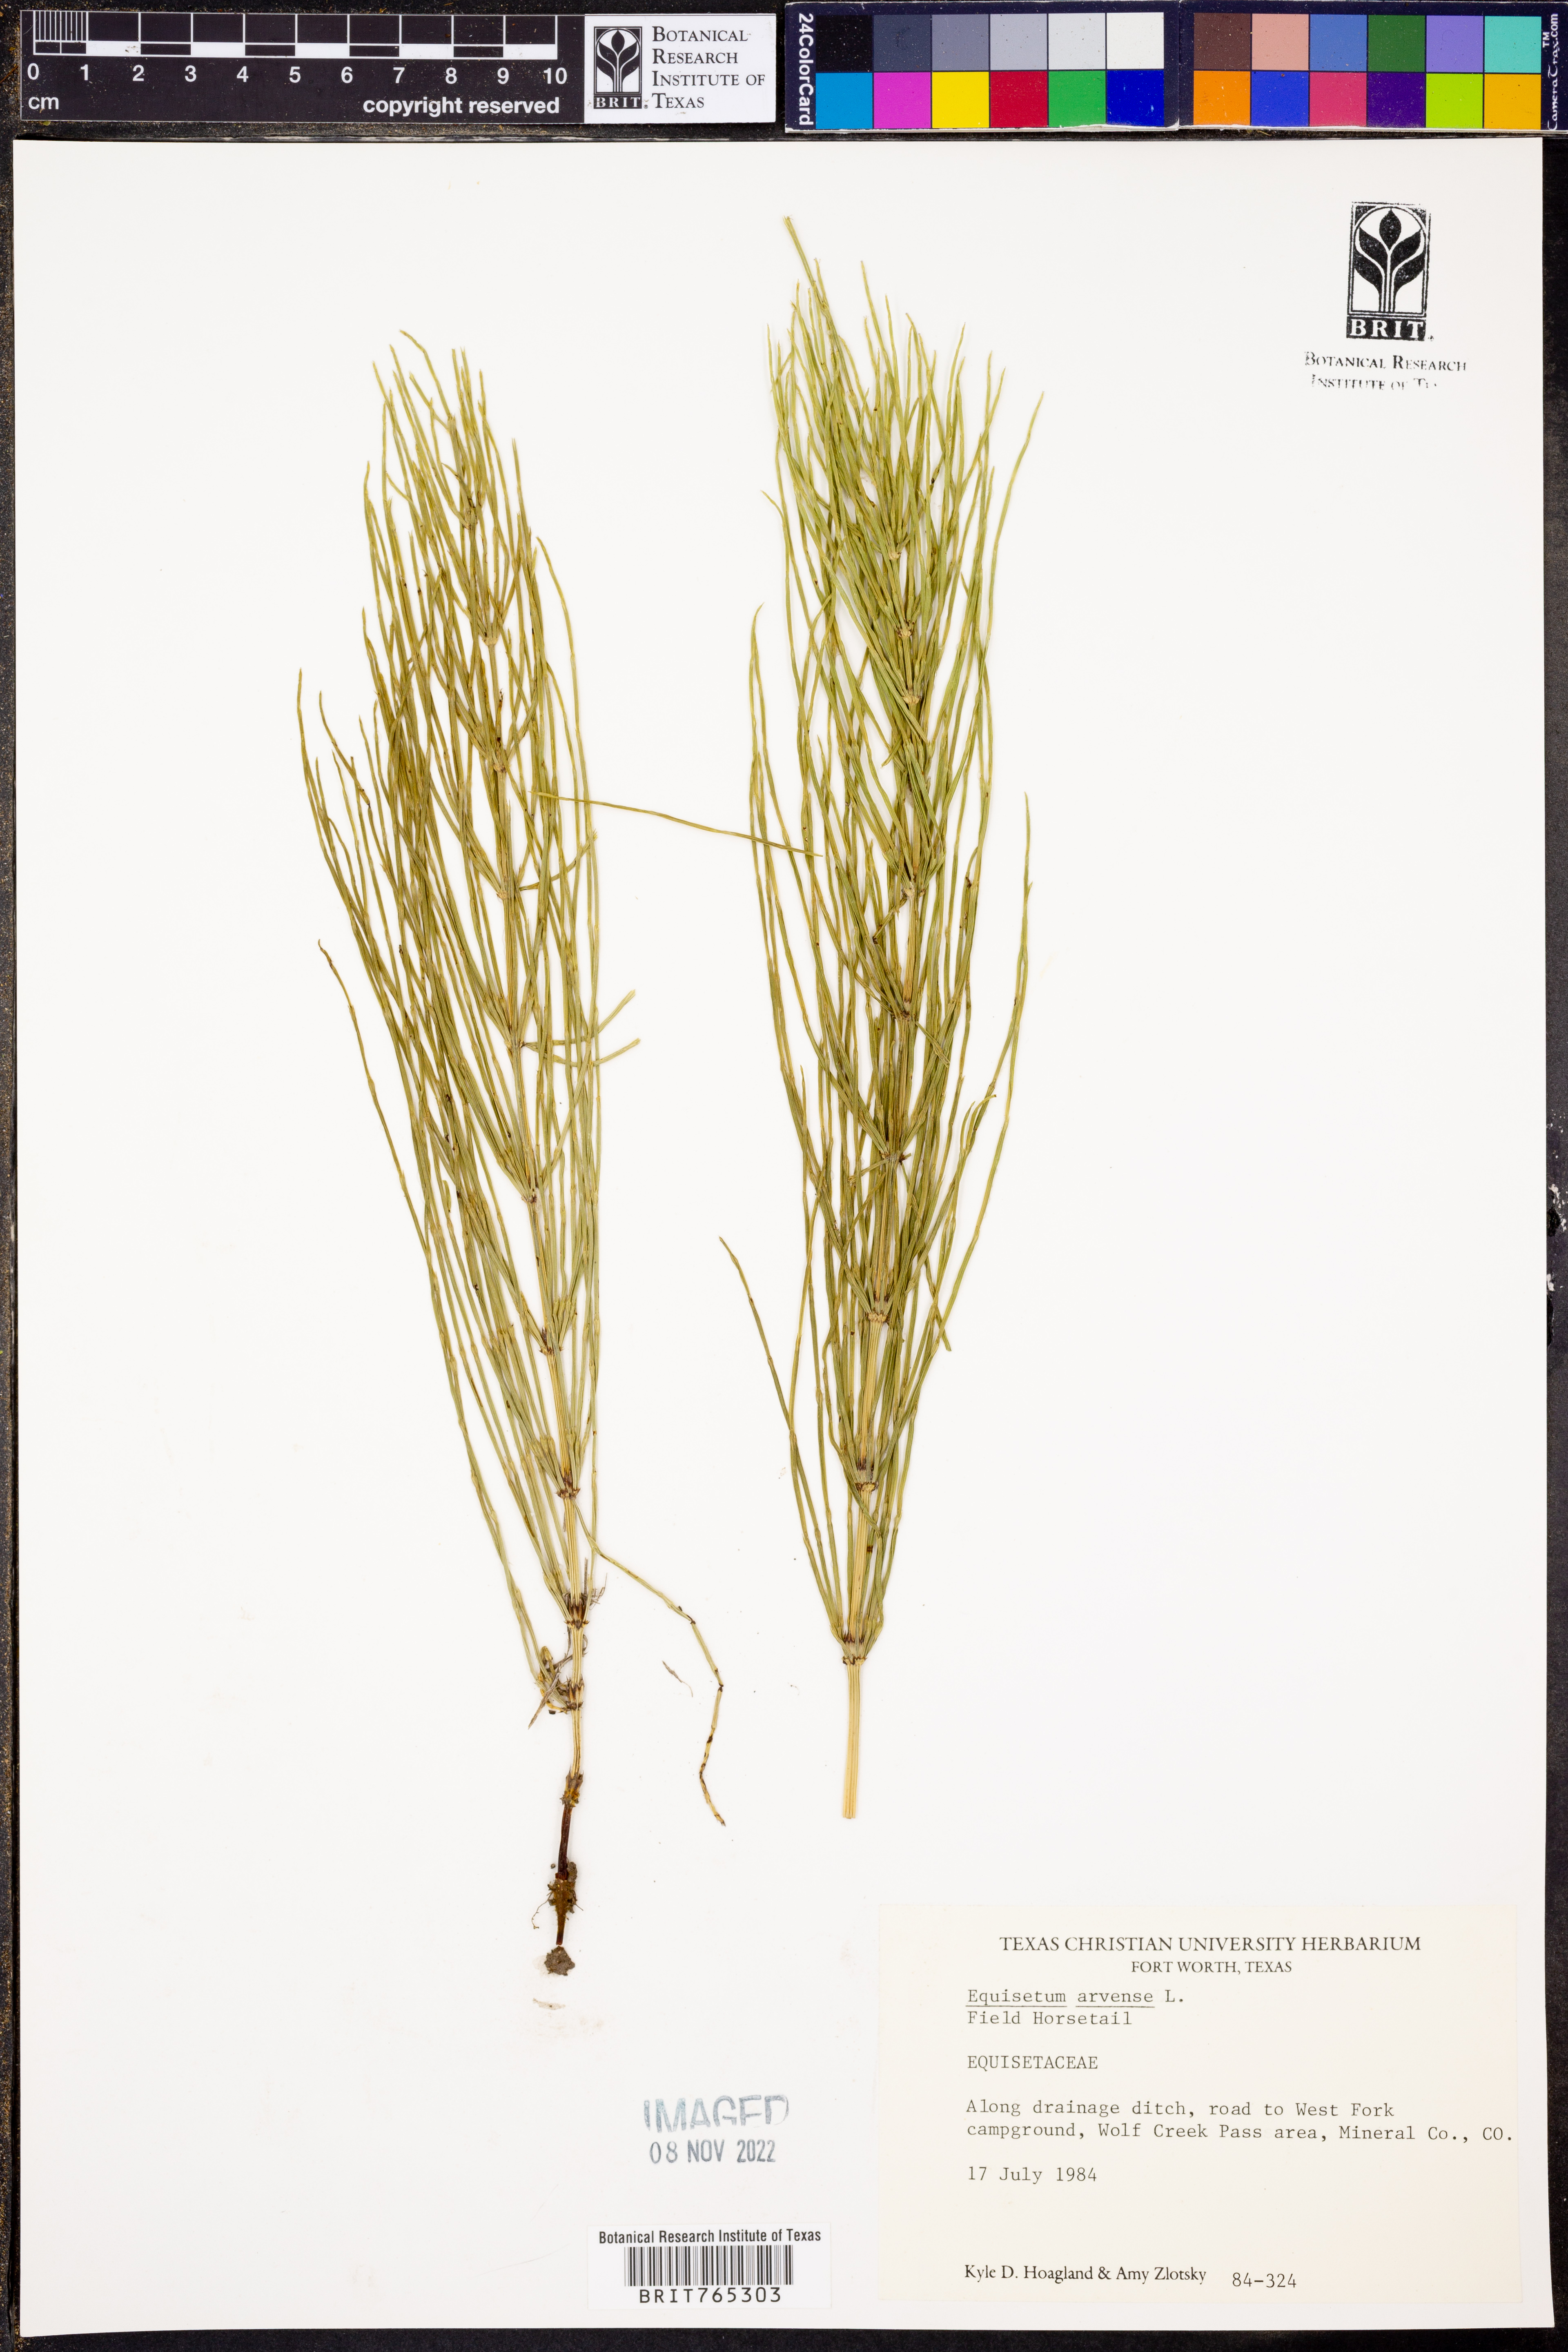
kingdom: Plantae
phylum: Tracheophyta
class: Polypodiopsida
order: Equisetales
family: Equisetaceae
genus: Equisetum
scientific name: Equisetum arvense
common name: Field horsetail
